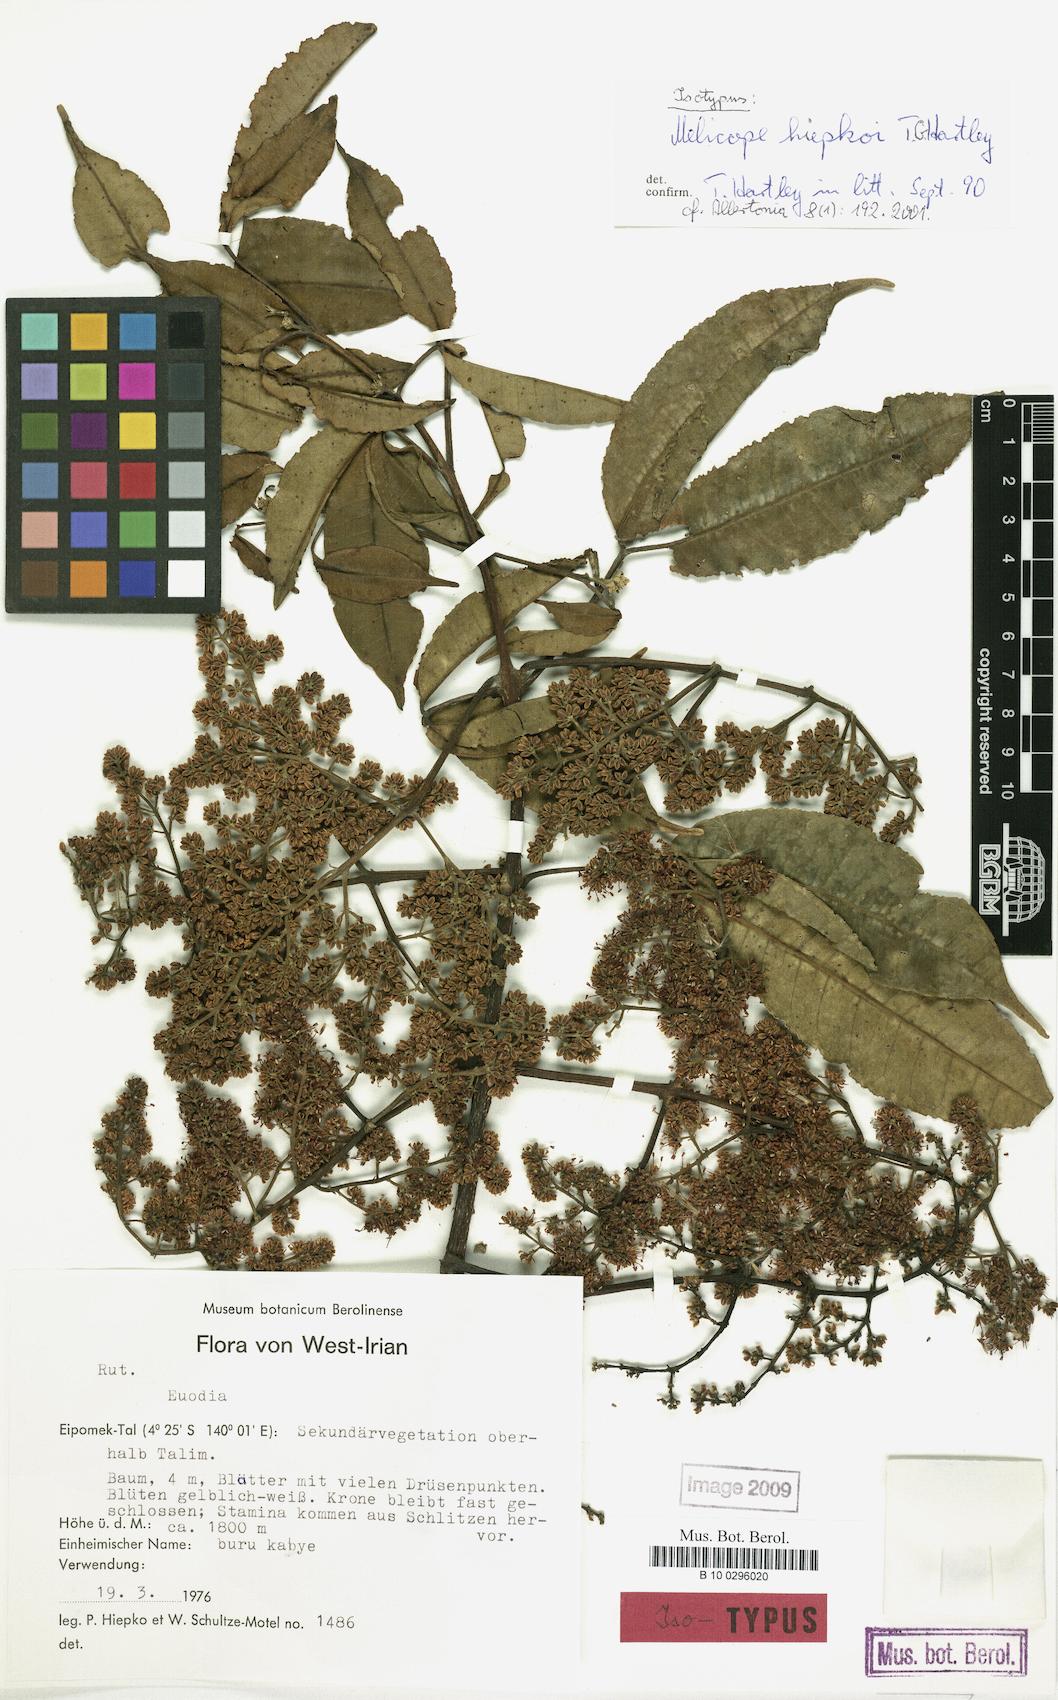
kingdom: Plantae
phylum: Tracheophyta
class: Magnoliopsida
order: Sapindales
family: Rutaceae
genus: Melicope
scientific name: Melicope hiepkoi
